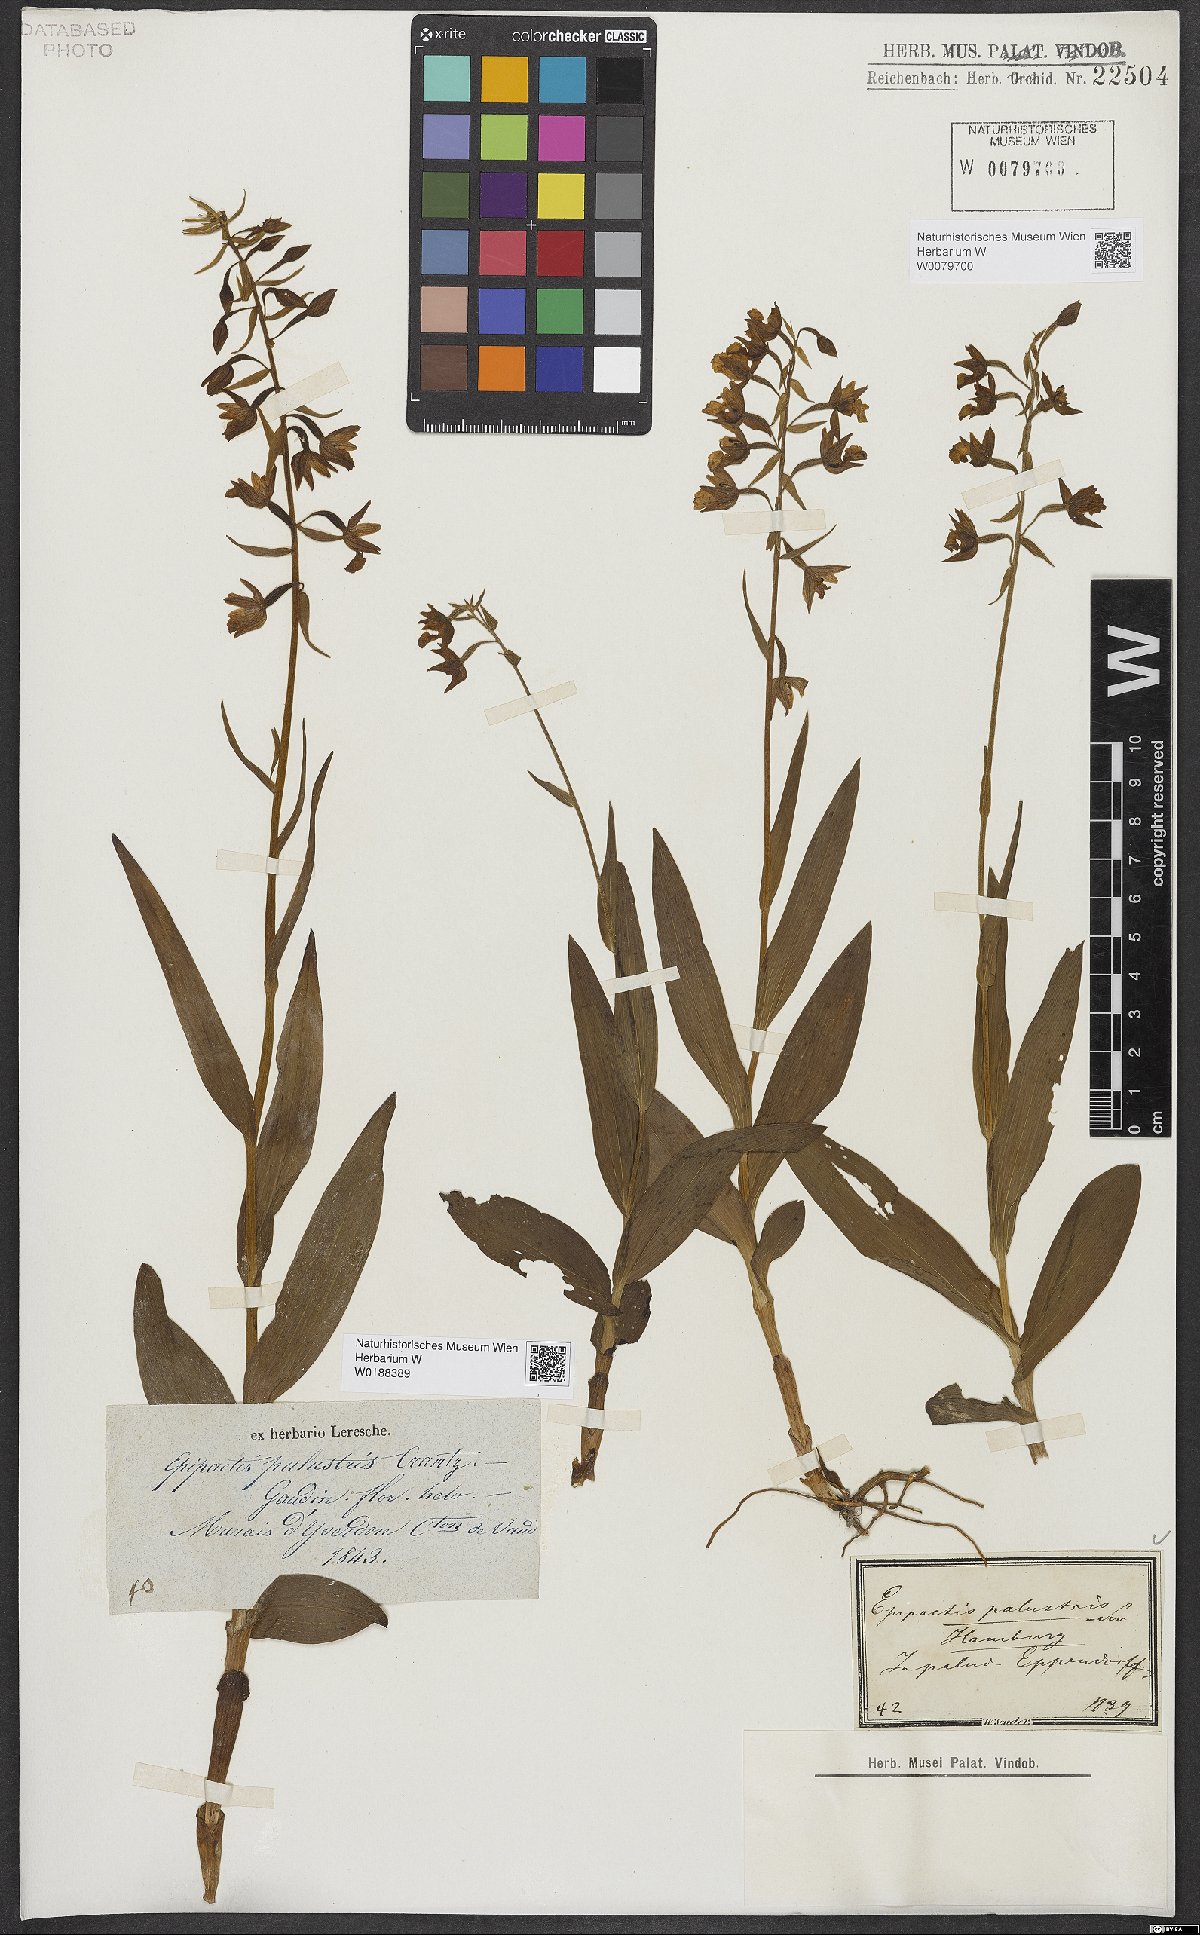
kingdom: Plantae
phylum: Tracheophyta
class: Liliopsida
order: Asparagales
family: Orchidaceae
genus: Epipactis
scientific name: Epipactis palustris
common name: Marsh helleborine
